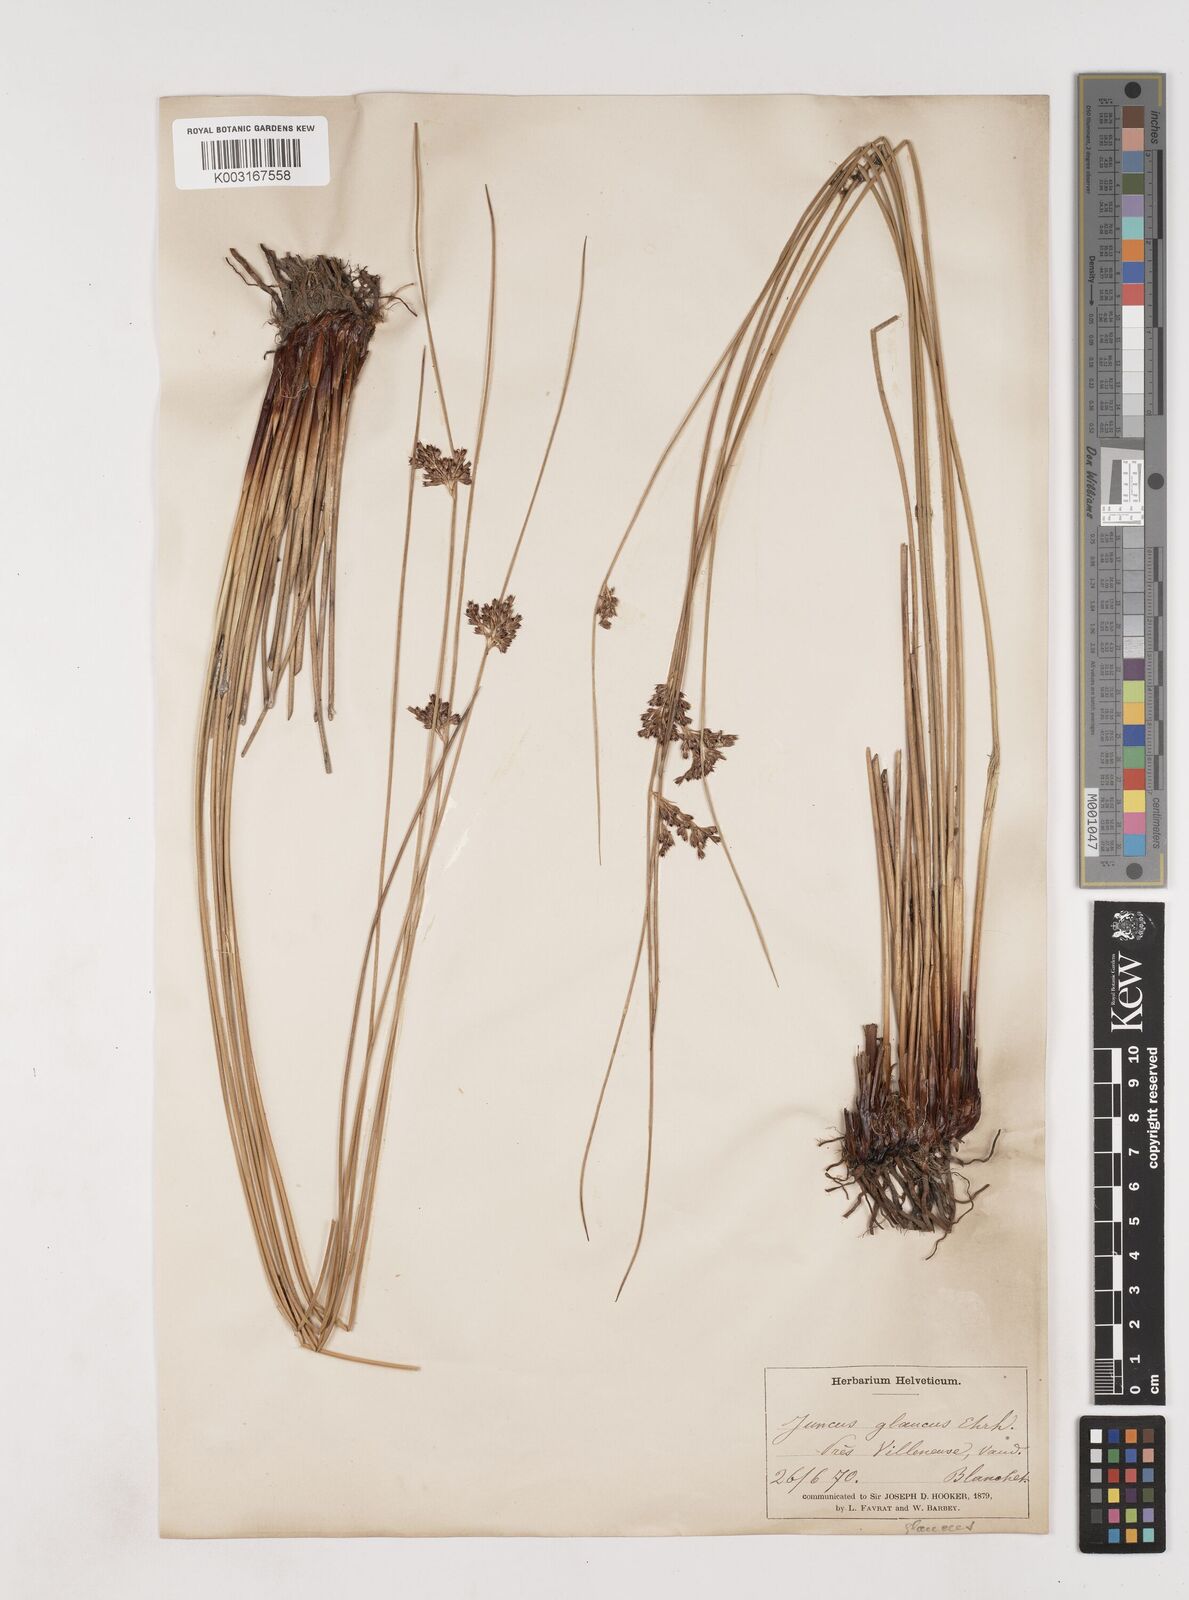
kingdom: Plantae
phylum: Tracheophyta
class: Liliopsida
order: Poales
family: Juncaceae
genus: Juncus
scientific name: Juncus inflexus
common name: Hard rush
